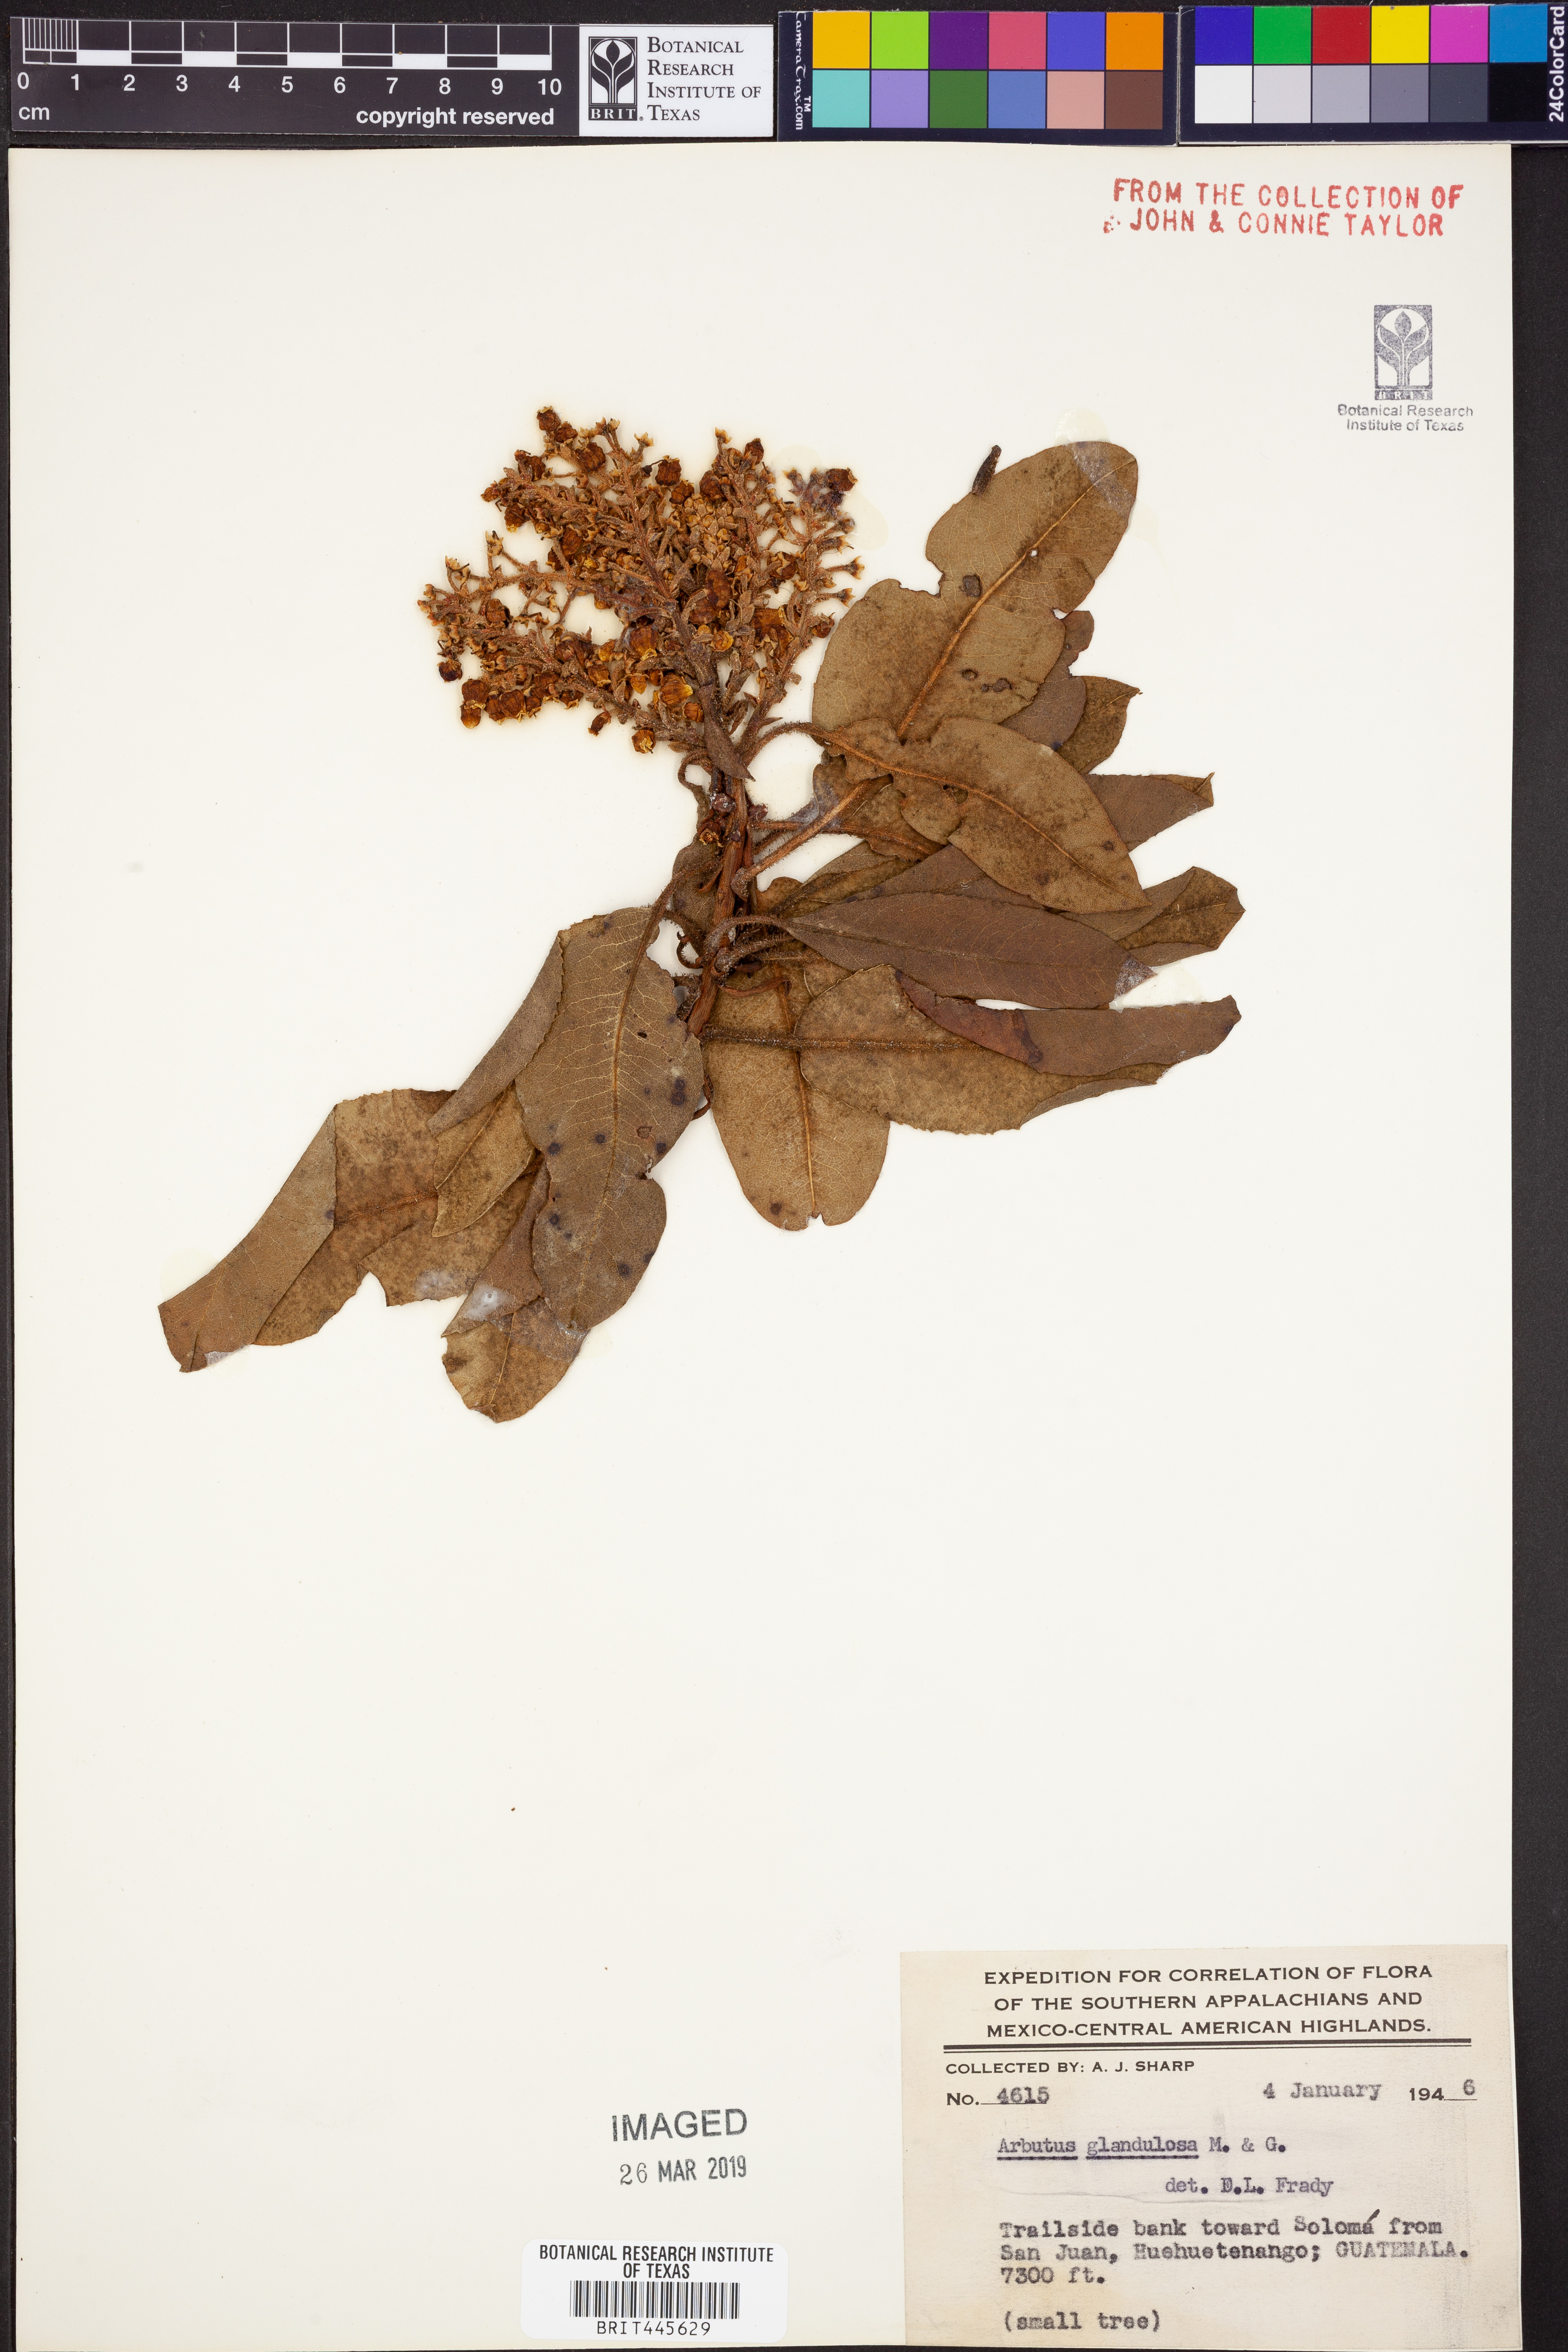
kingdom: Plantae
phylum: Tracheophyta
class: Magnoliopsida
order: Ericales
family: Ericaceae
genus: Arbutus
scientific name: Arbutus xalapensis
